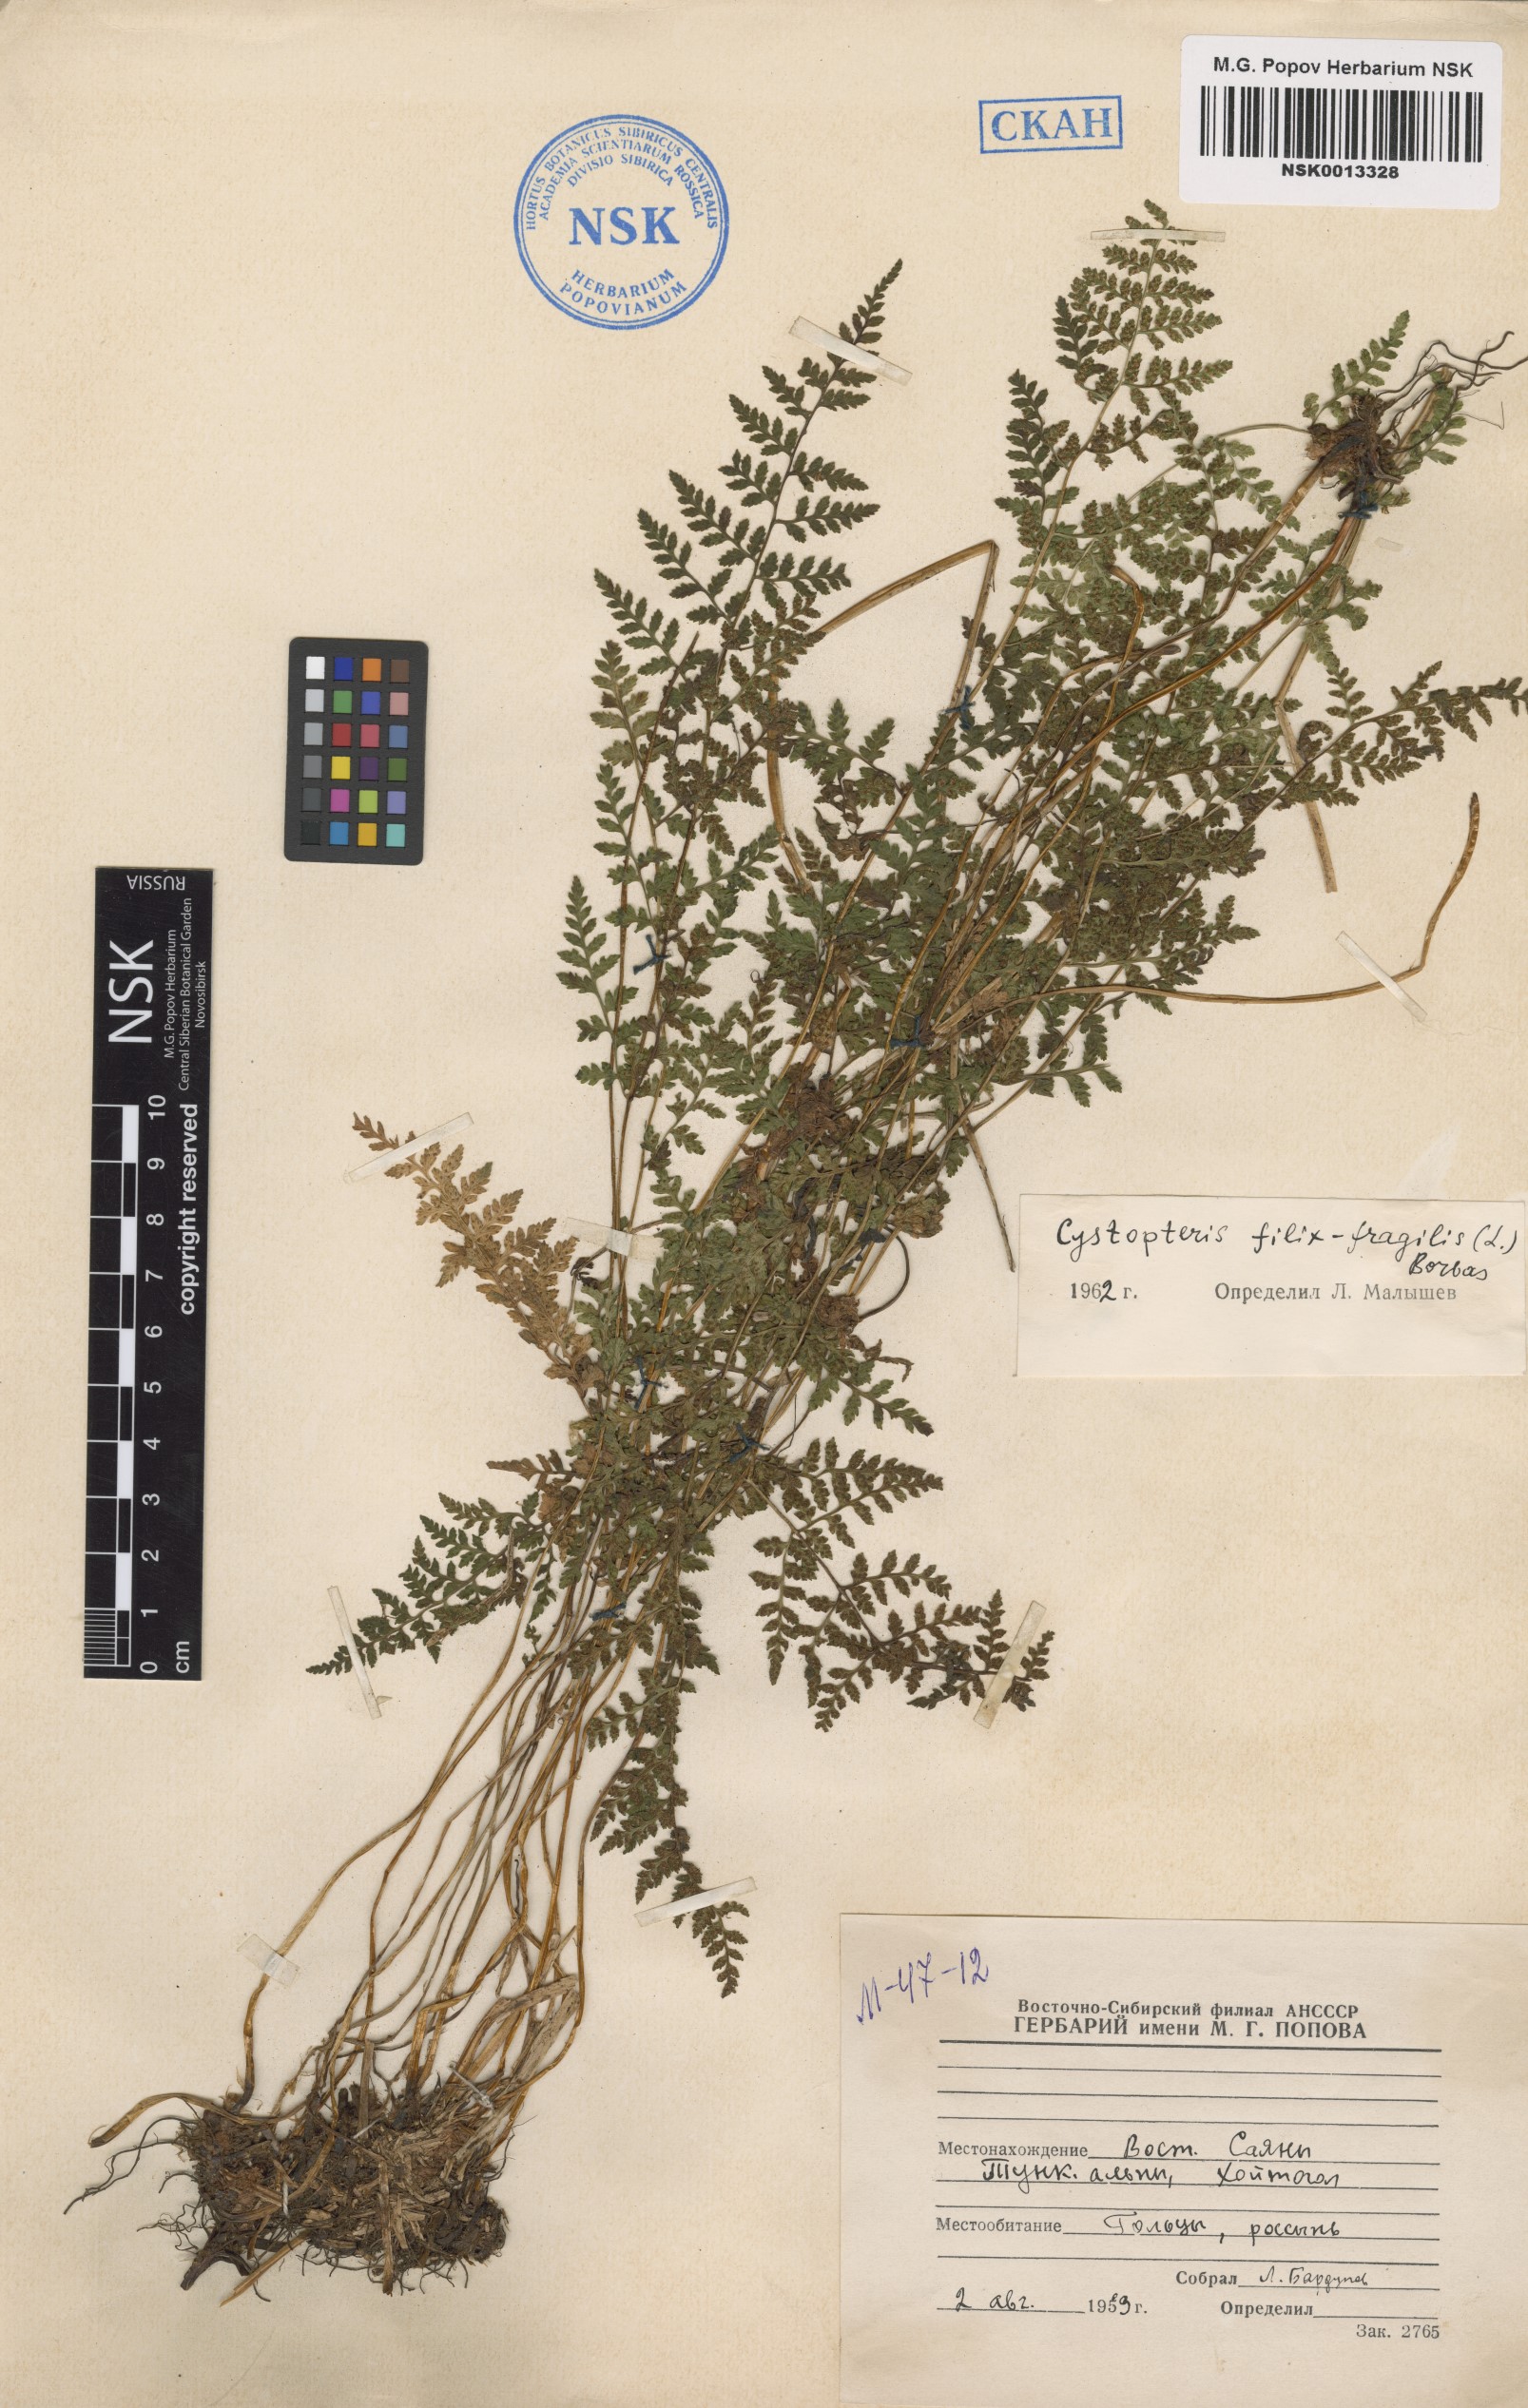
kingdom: Plantae
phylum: Tracheophyta
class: Polypodiopsida
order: Polypodiales
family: Cystopteridaceae
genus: Cystopteris
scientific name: Cystopteris fragilis
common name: Brittle bladder fern
